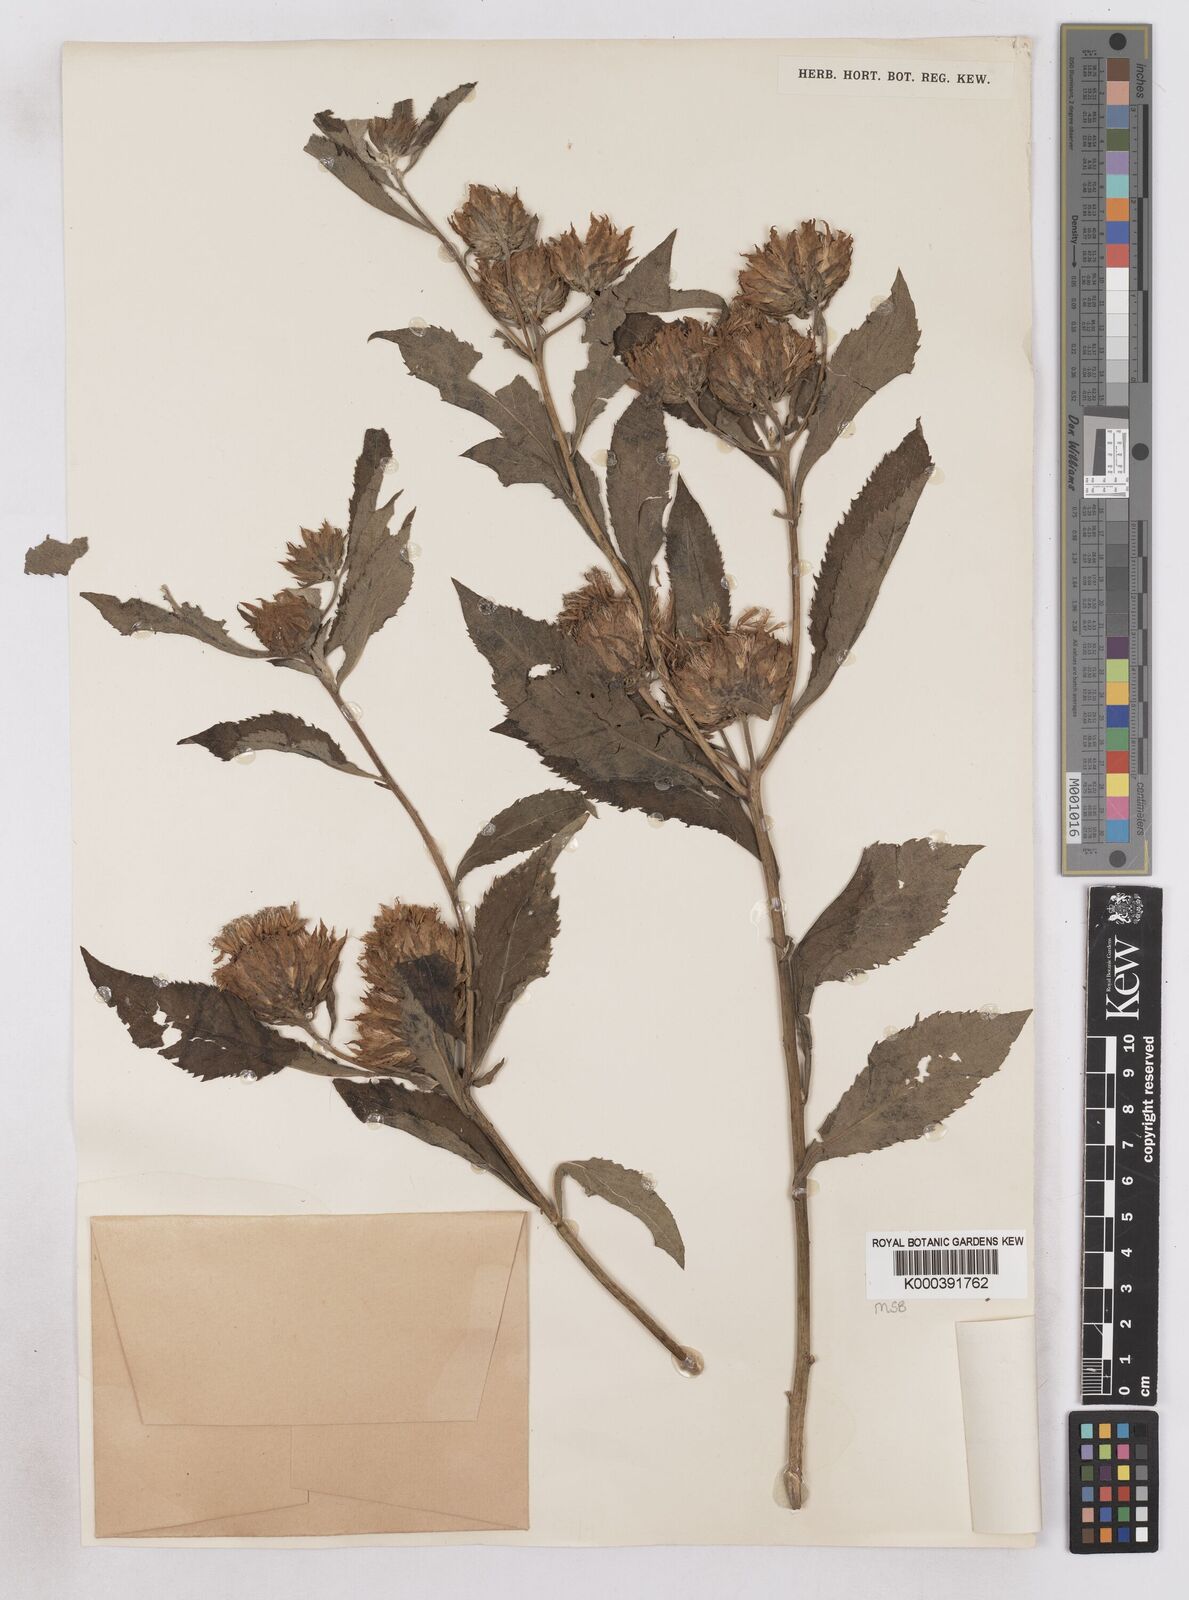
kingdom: Plantae
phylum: Tracheophyta
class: Magnoliopsida
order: Asterales
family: Asteraceae
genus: Baccharoides
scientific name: Baccharoides adoensis
